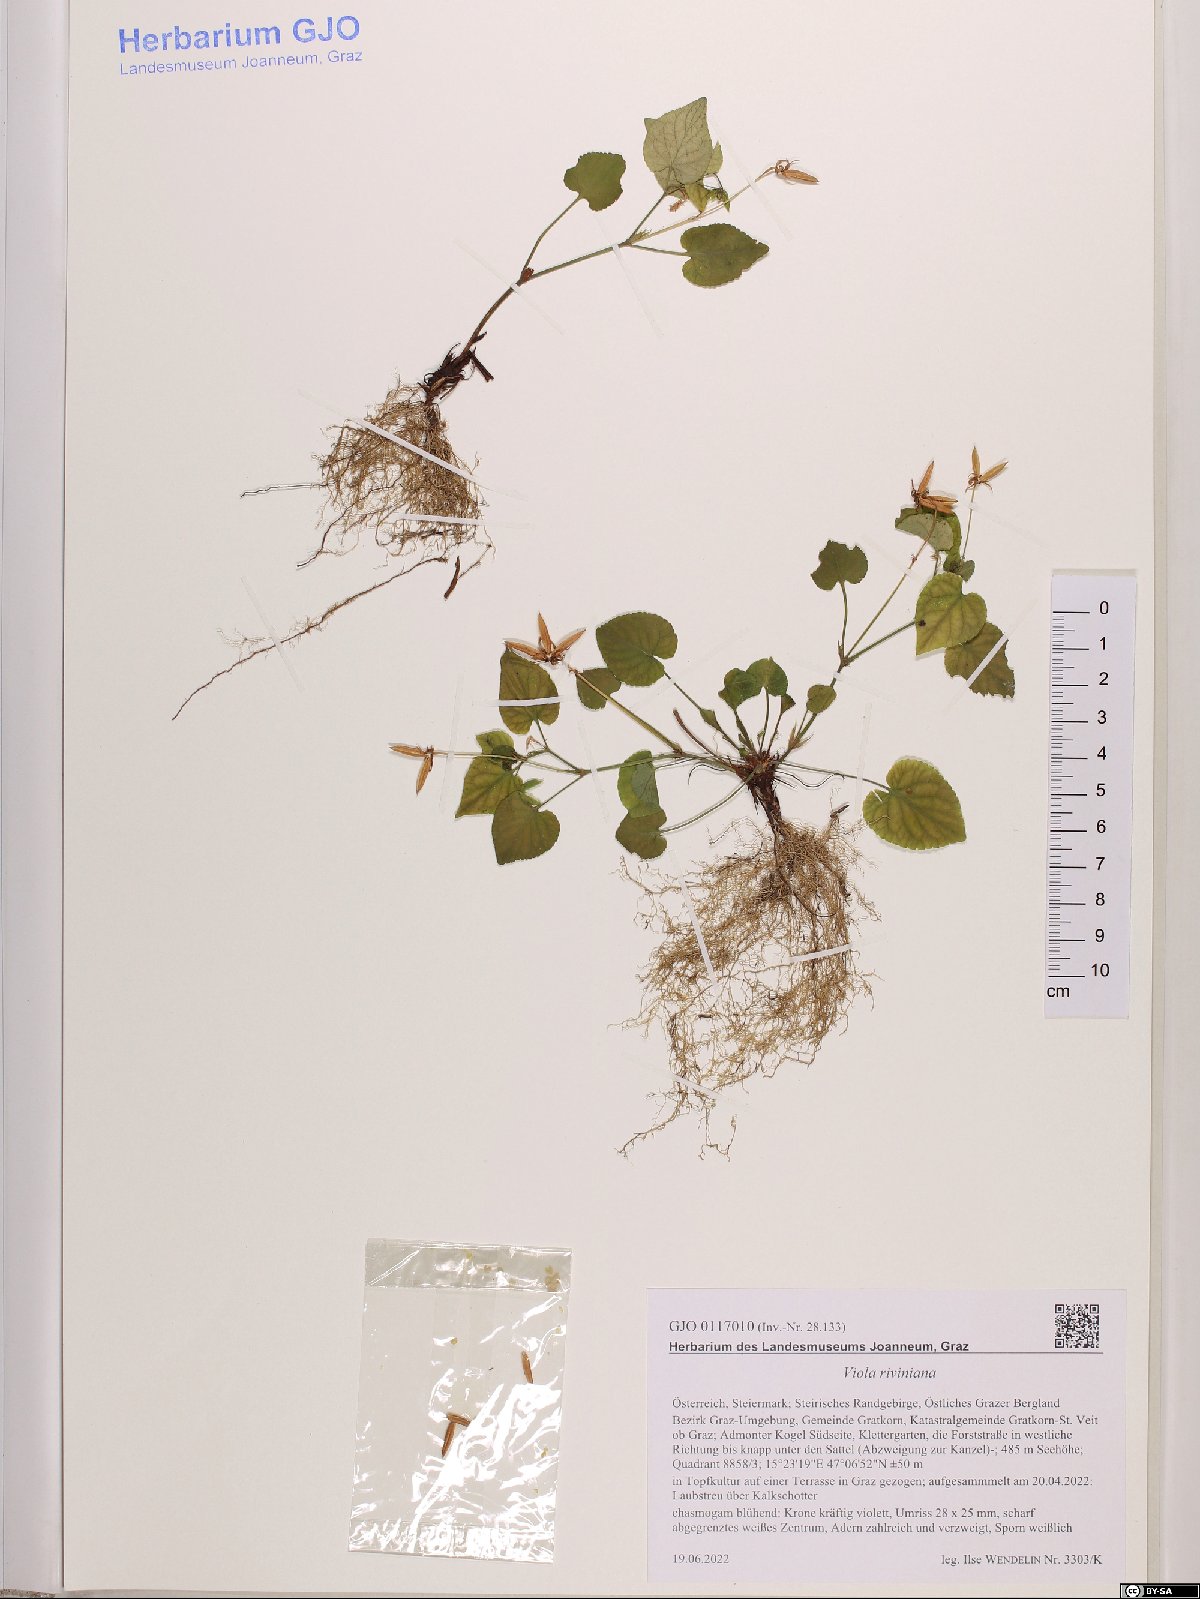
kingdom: Plantae
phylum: Tracheophyta
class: Magnoliopsida
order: Malpighiales
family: Violaceae
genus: Viola
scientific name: Viola riviniana
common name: Common dog-violet
